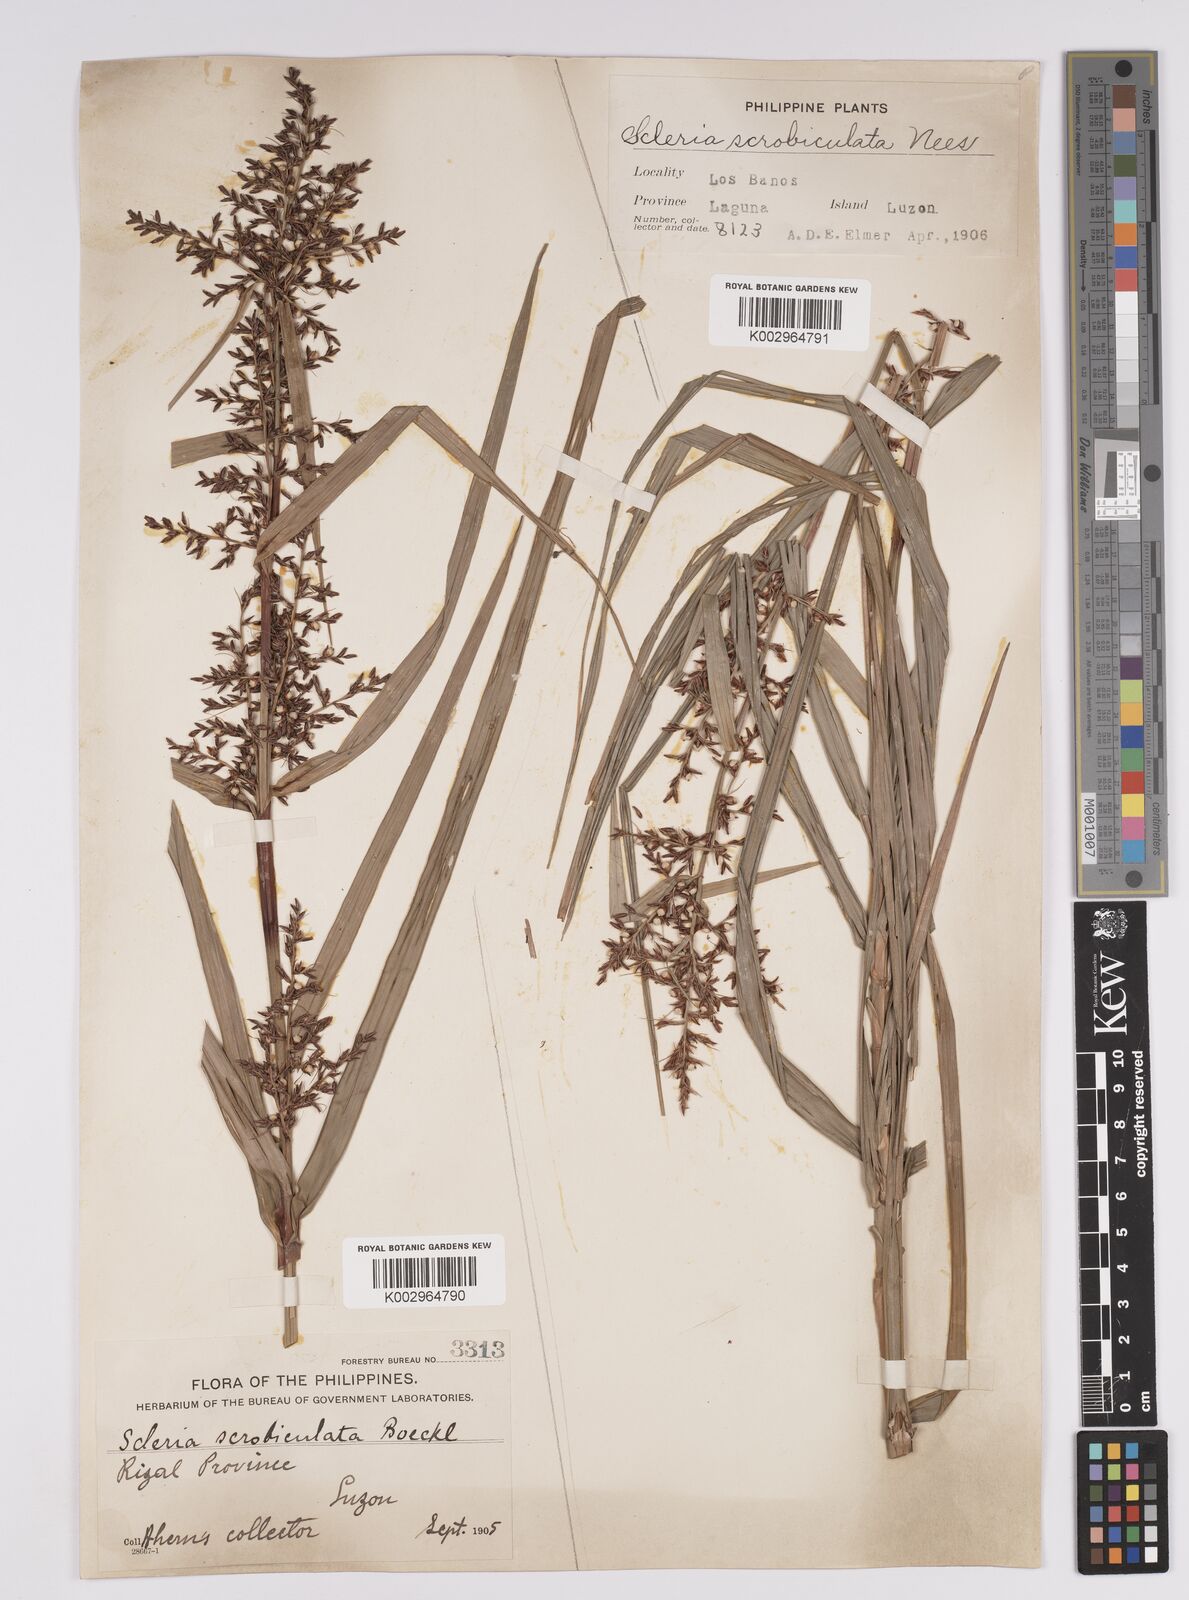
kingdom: Plantae
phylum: Tracheophyta
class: Liliopsida
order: Poales
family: Cyperaceae
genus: Scleria
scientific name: Scleria scrobiculata
